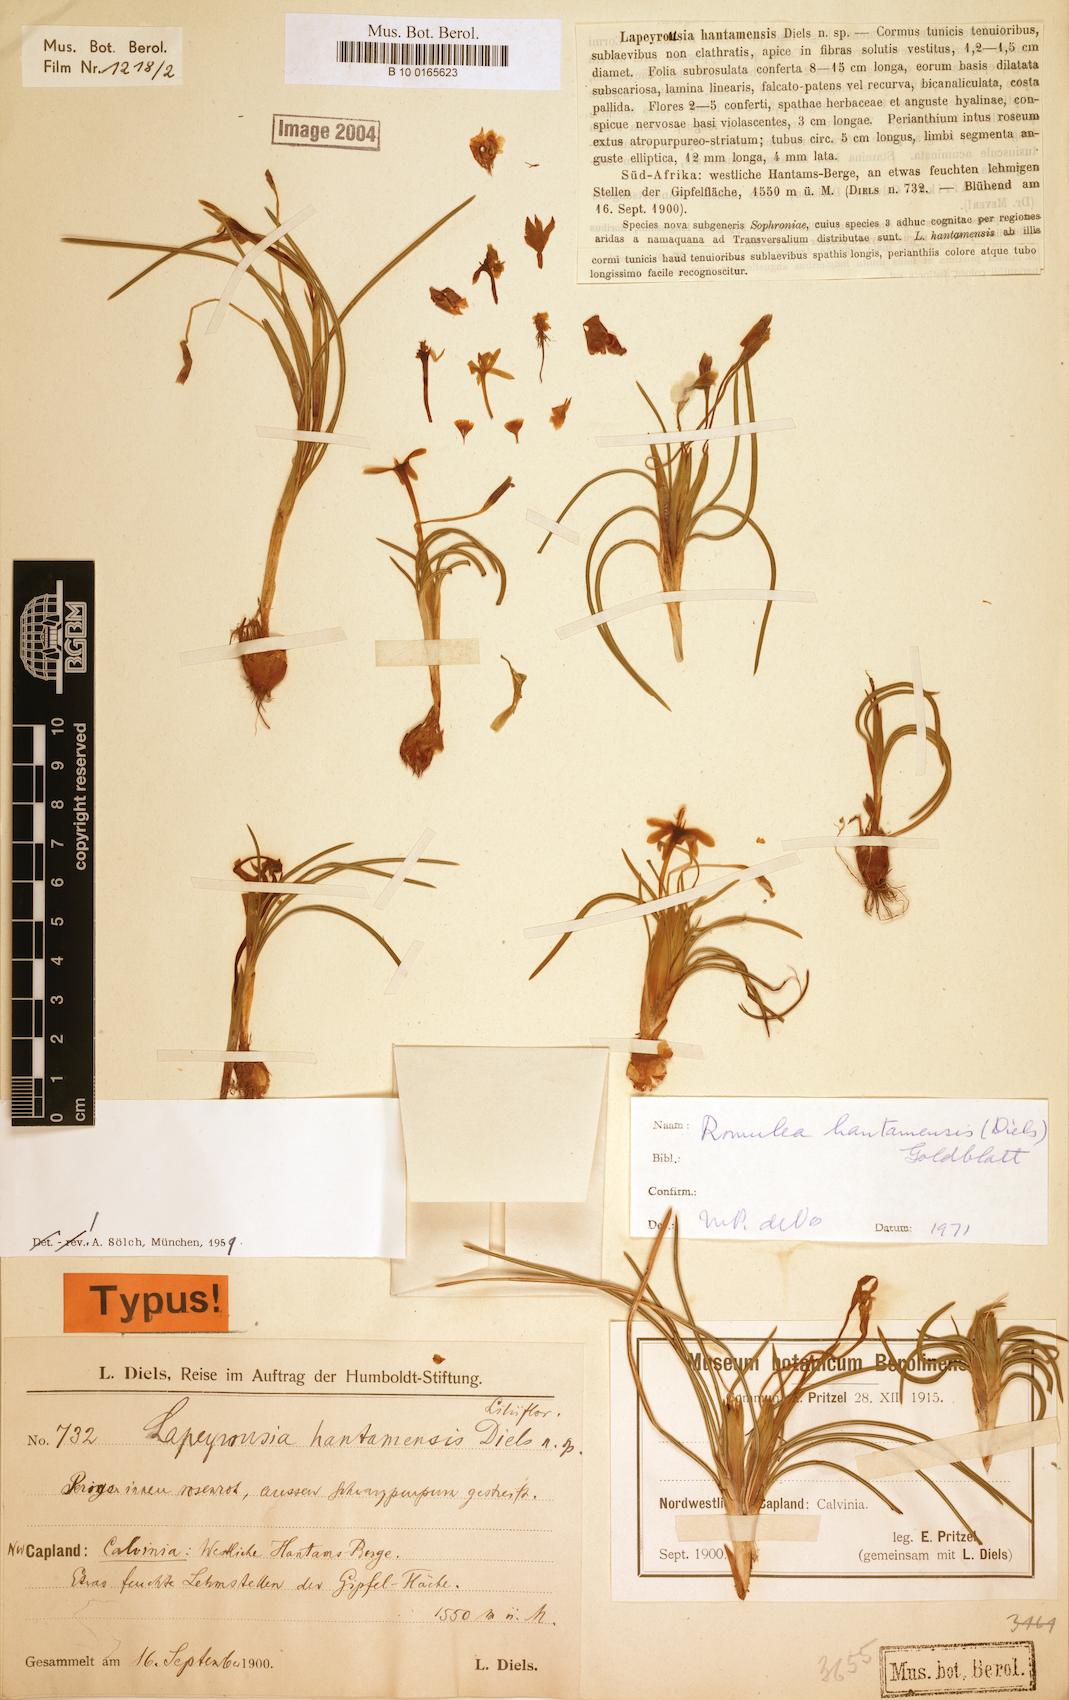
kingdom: Plantae
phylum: Tracheophyta
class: Liliopsida
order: Asparagales
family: Iridaceae
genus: Romulea
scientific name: Romulea hantamensis
